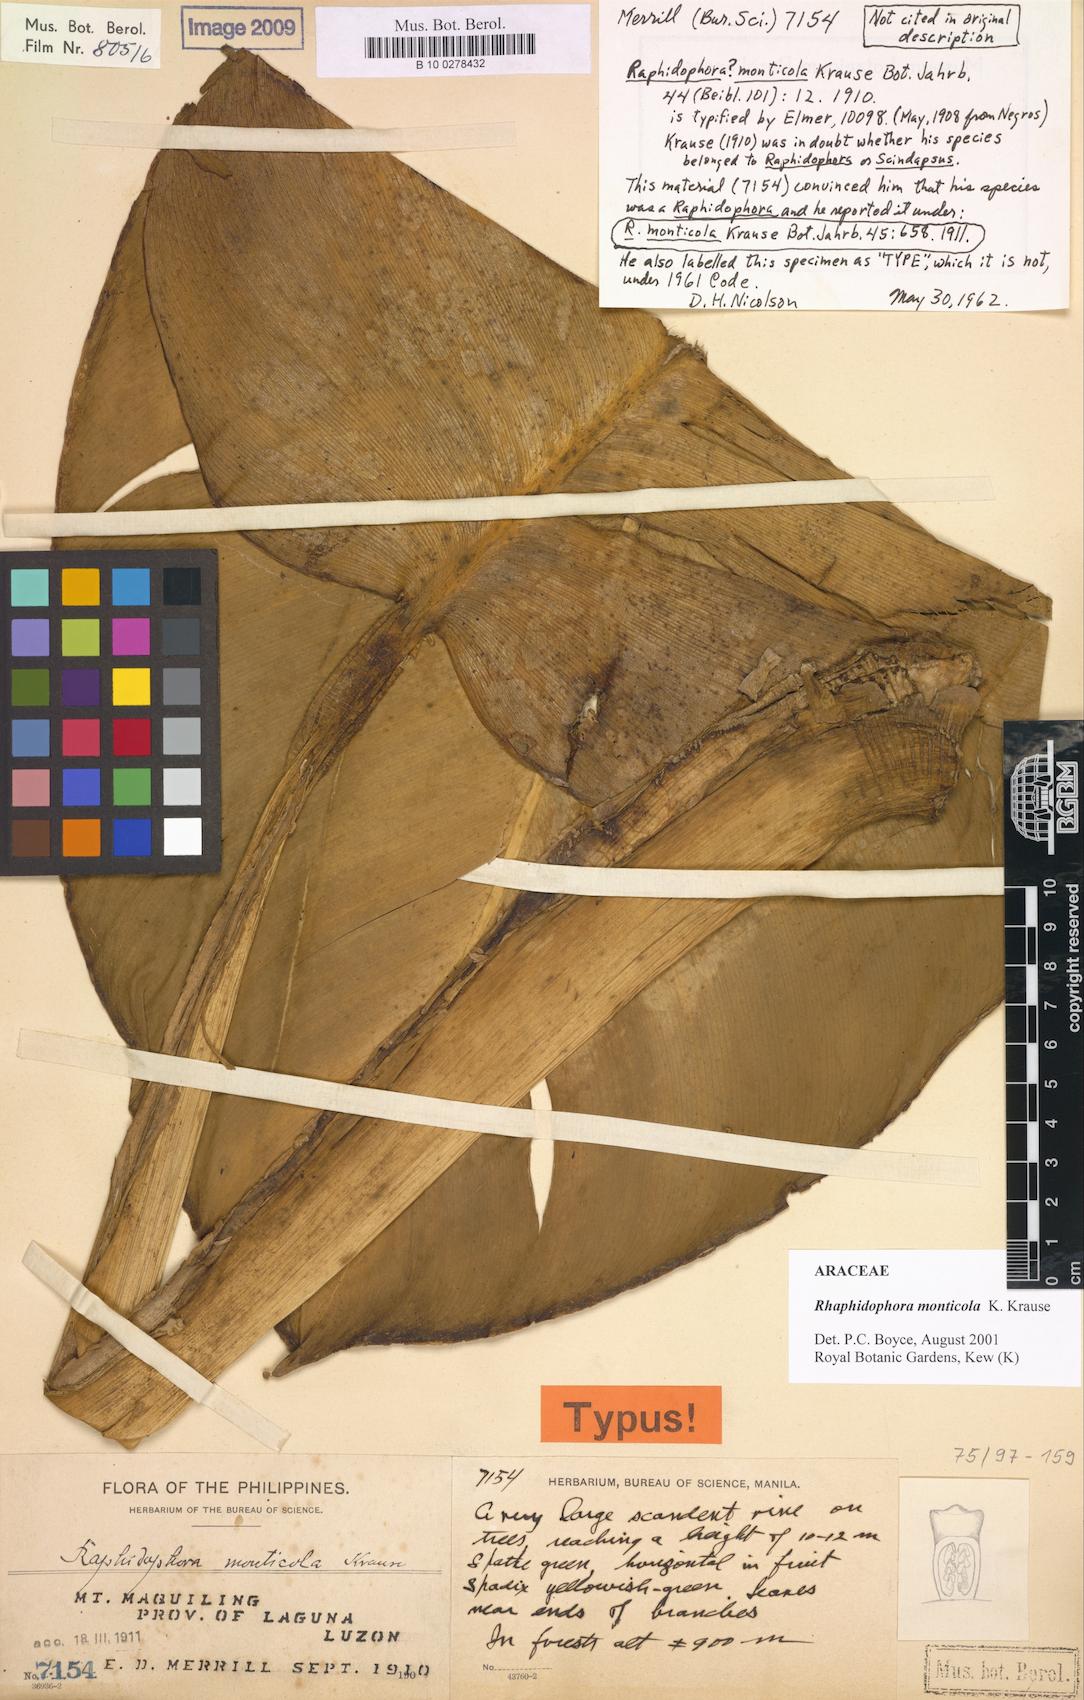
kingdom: Plantae
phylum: Tracheophyta
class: Liliopsida
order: Alismatales
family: Araceae
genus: Rhaphidophora
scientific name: Rhaphidophora monticola
